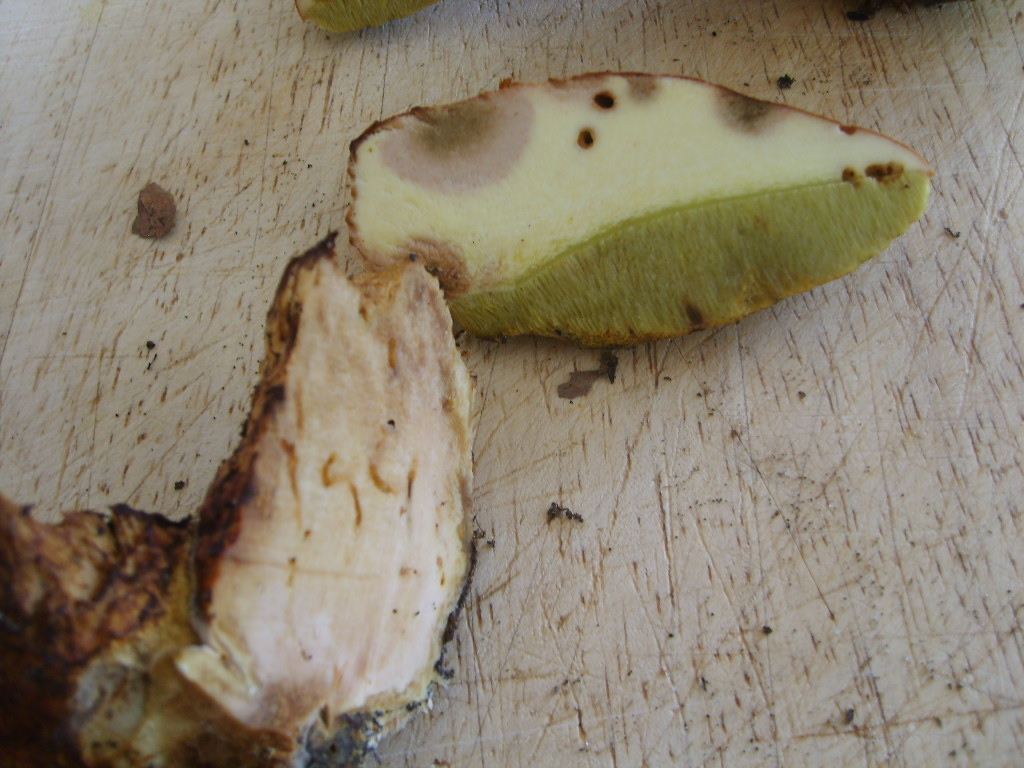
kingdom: Fungi
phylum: Basidiomycota
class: Agaricomycetes
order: Boletales
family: Boletaceae
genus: Butyriboletus
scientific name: Butyriboletus appendiculatus
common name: tenstokket rørhat
